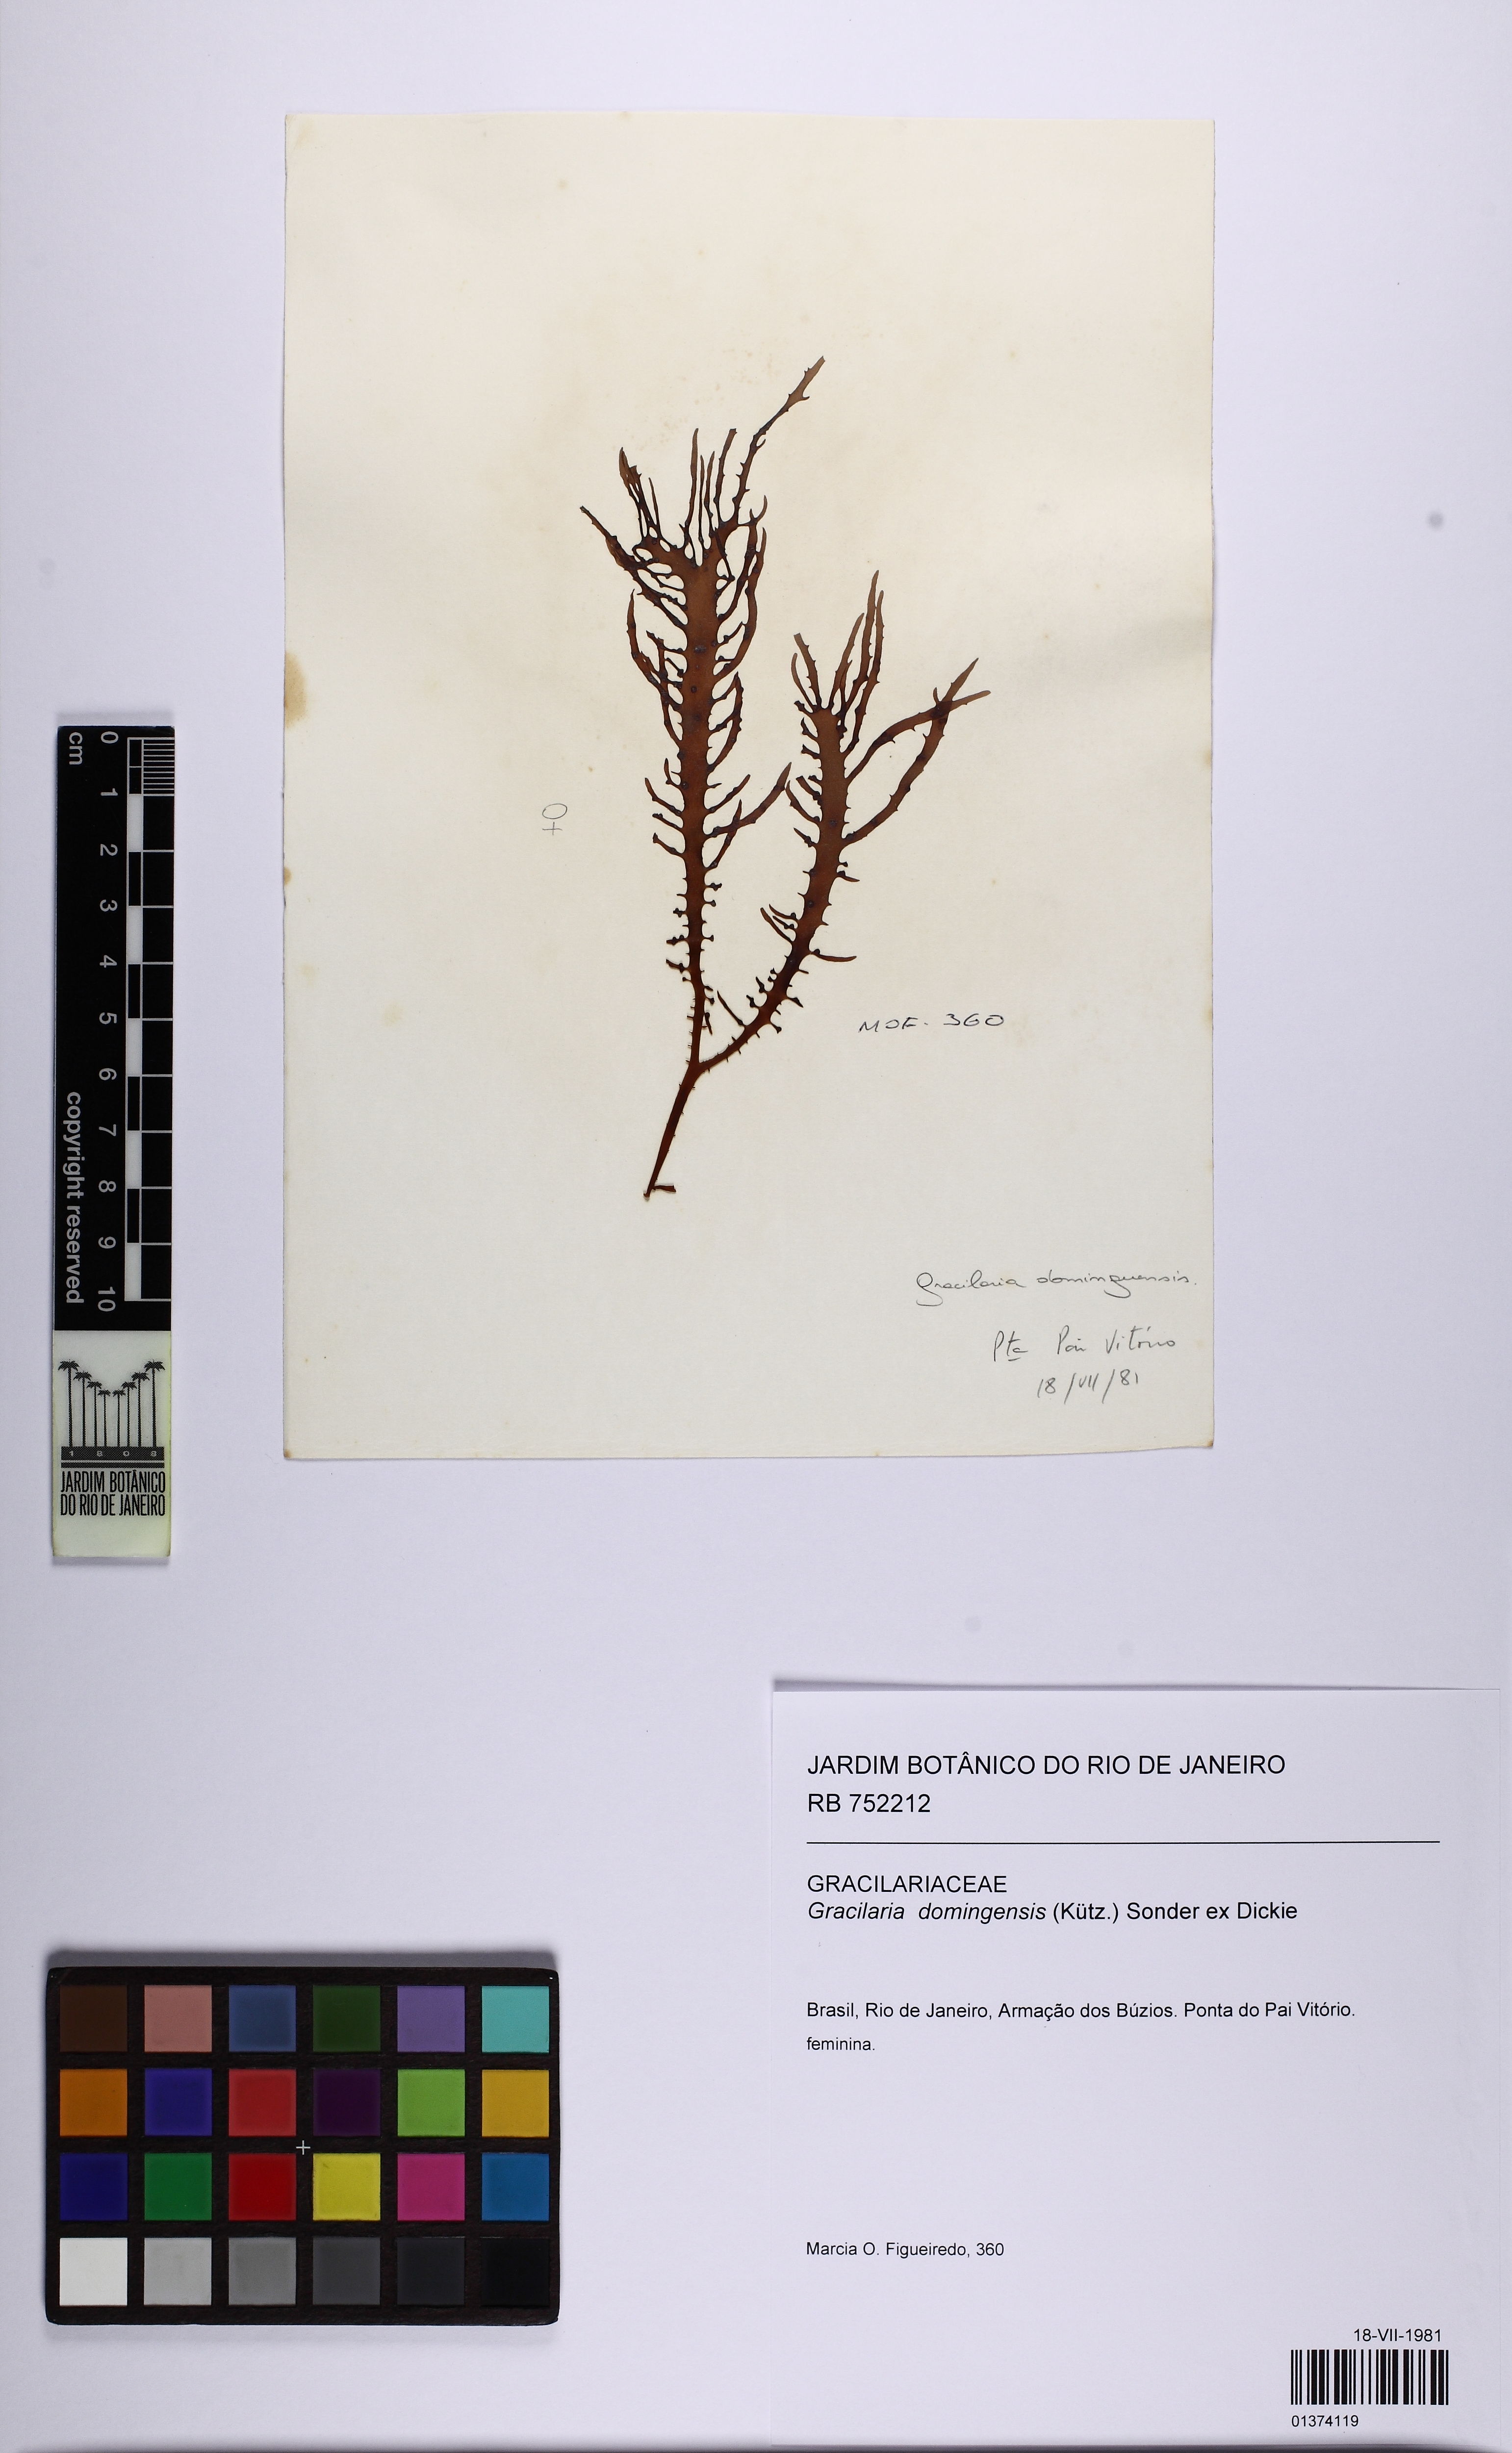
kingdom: Plantae
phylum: Rhodophyta
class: Florideophyceae
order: Gracilariales
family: Gracilariaceae
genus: Gracilaria
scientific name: Gracilaria domingensis
